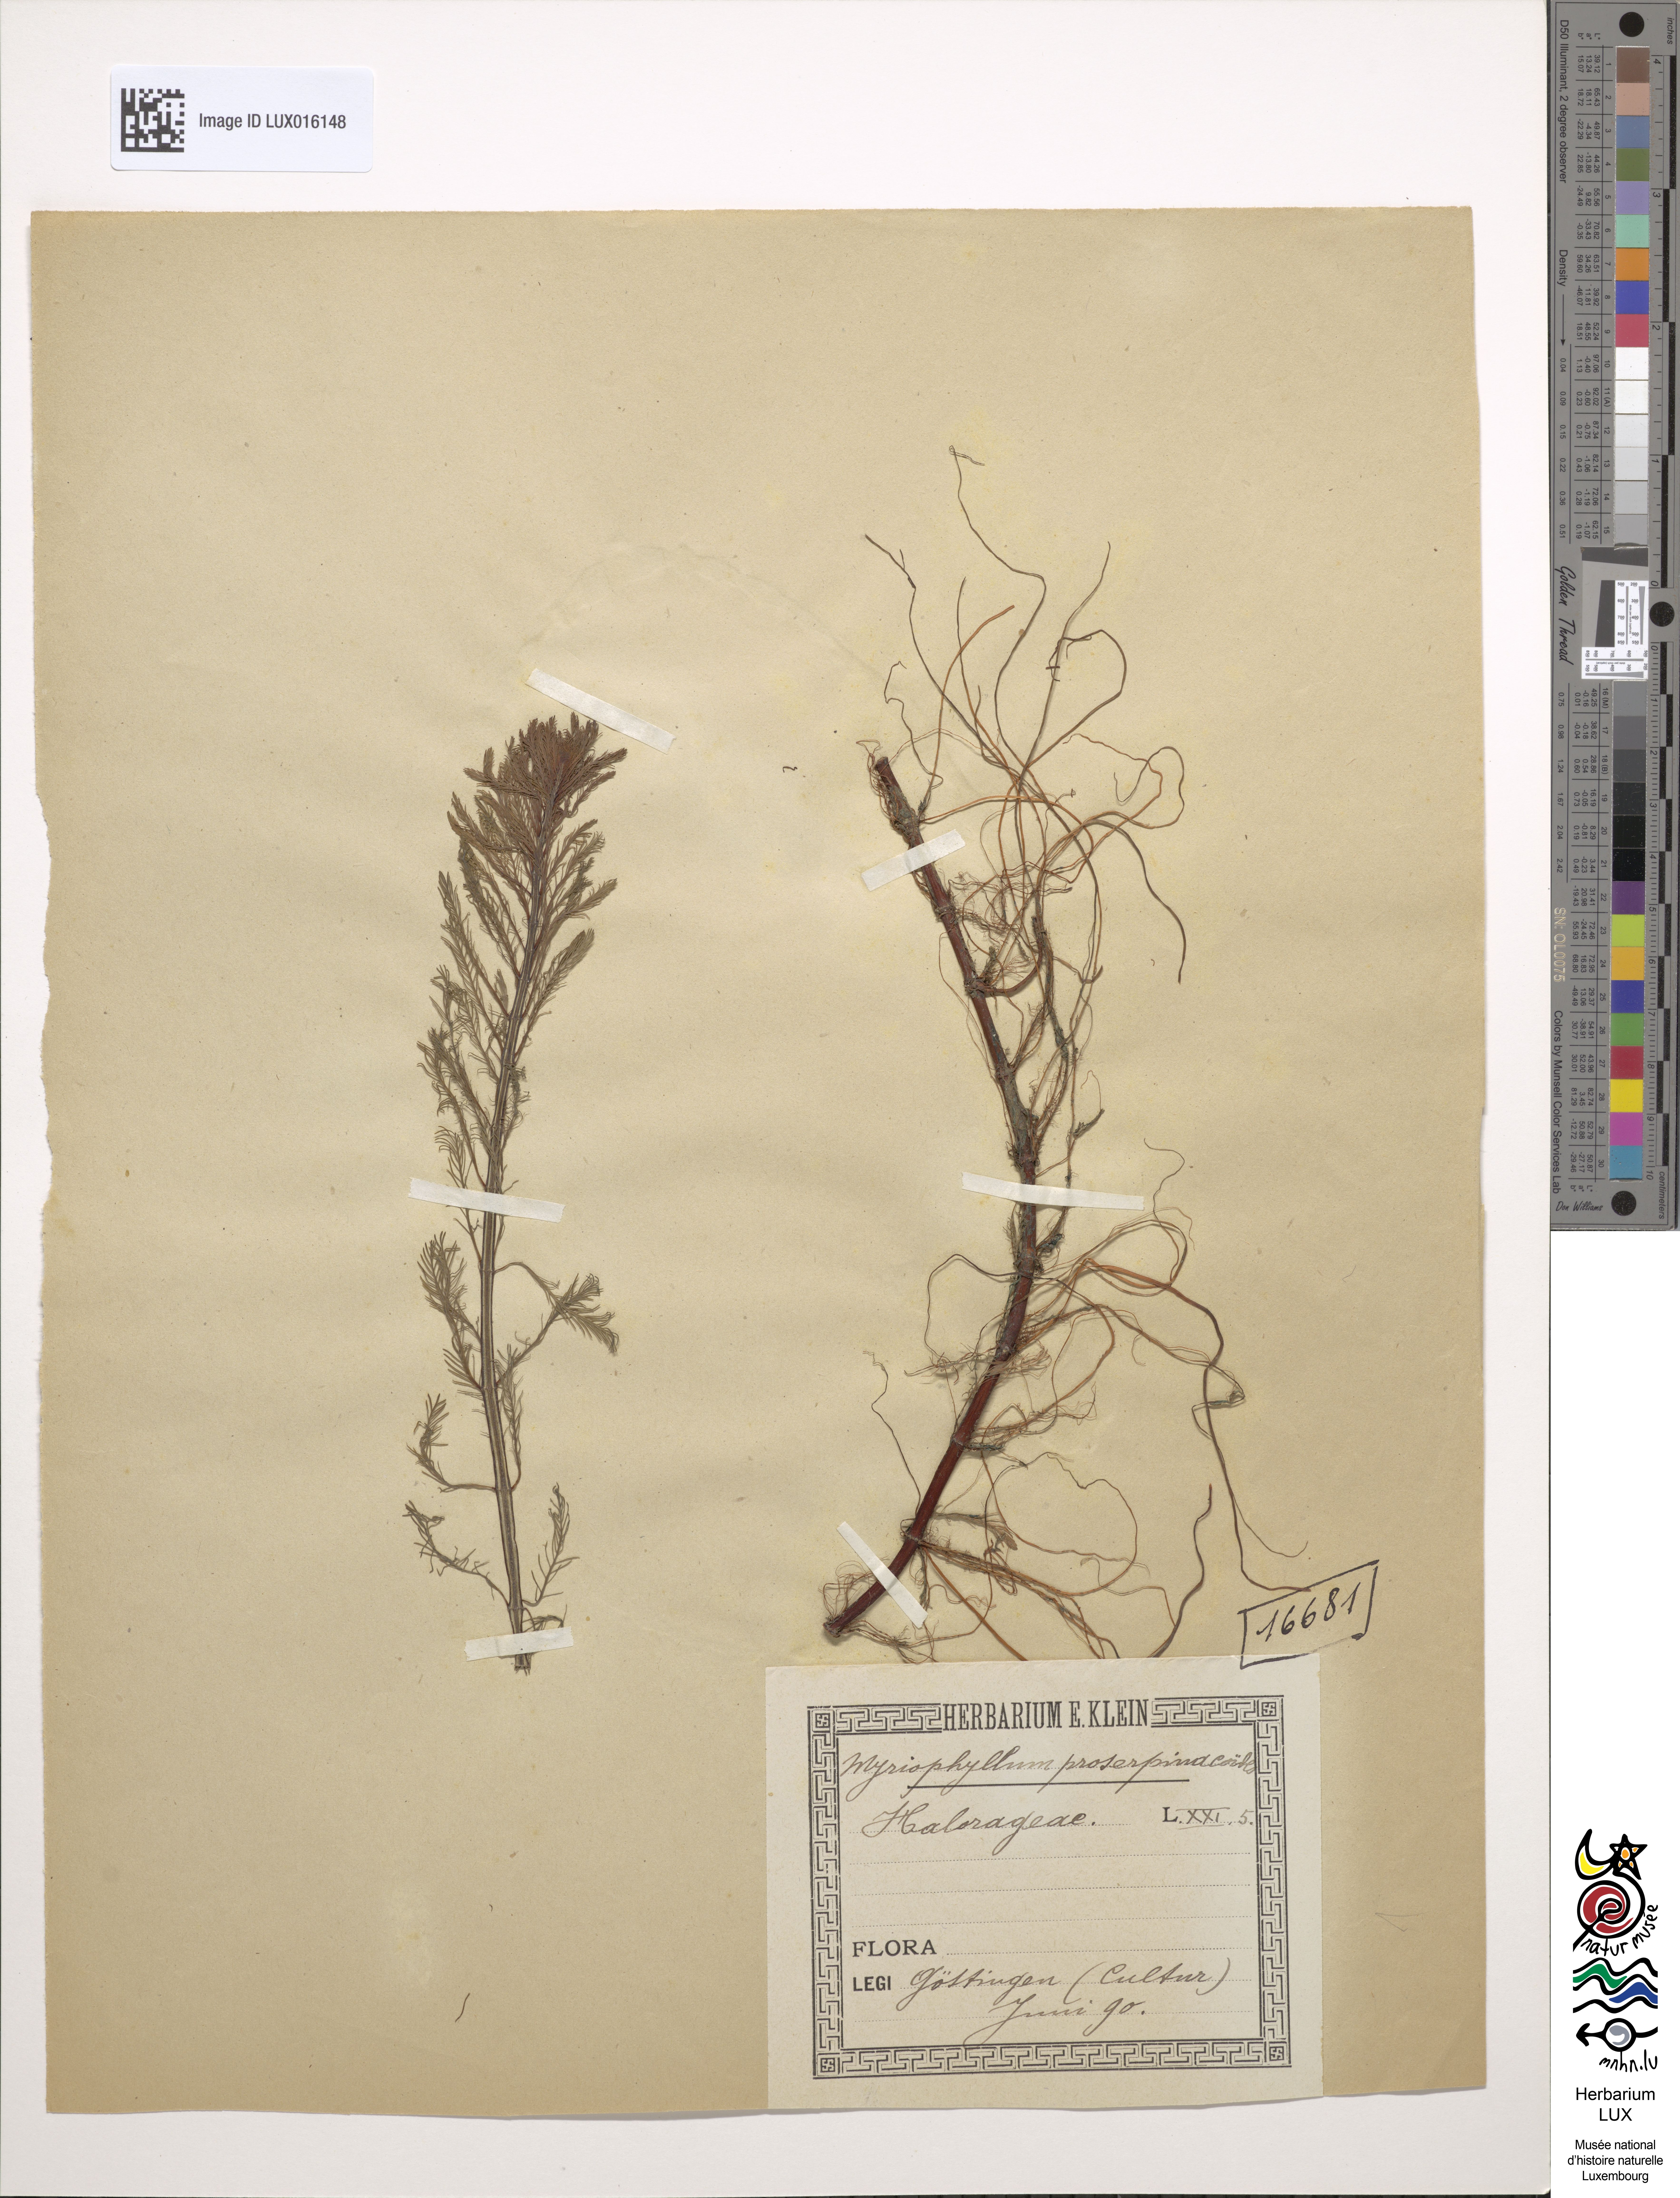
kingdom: Plantae
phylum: Tracheophyta
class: Magnoliopsida
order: Saxifragales
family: Haloragaceae
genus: Myriophyllum
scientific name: Myriophyllum aquaticum
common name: Parrot's feather
